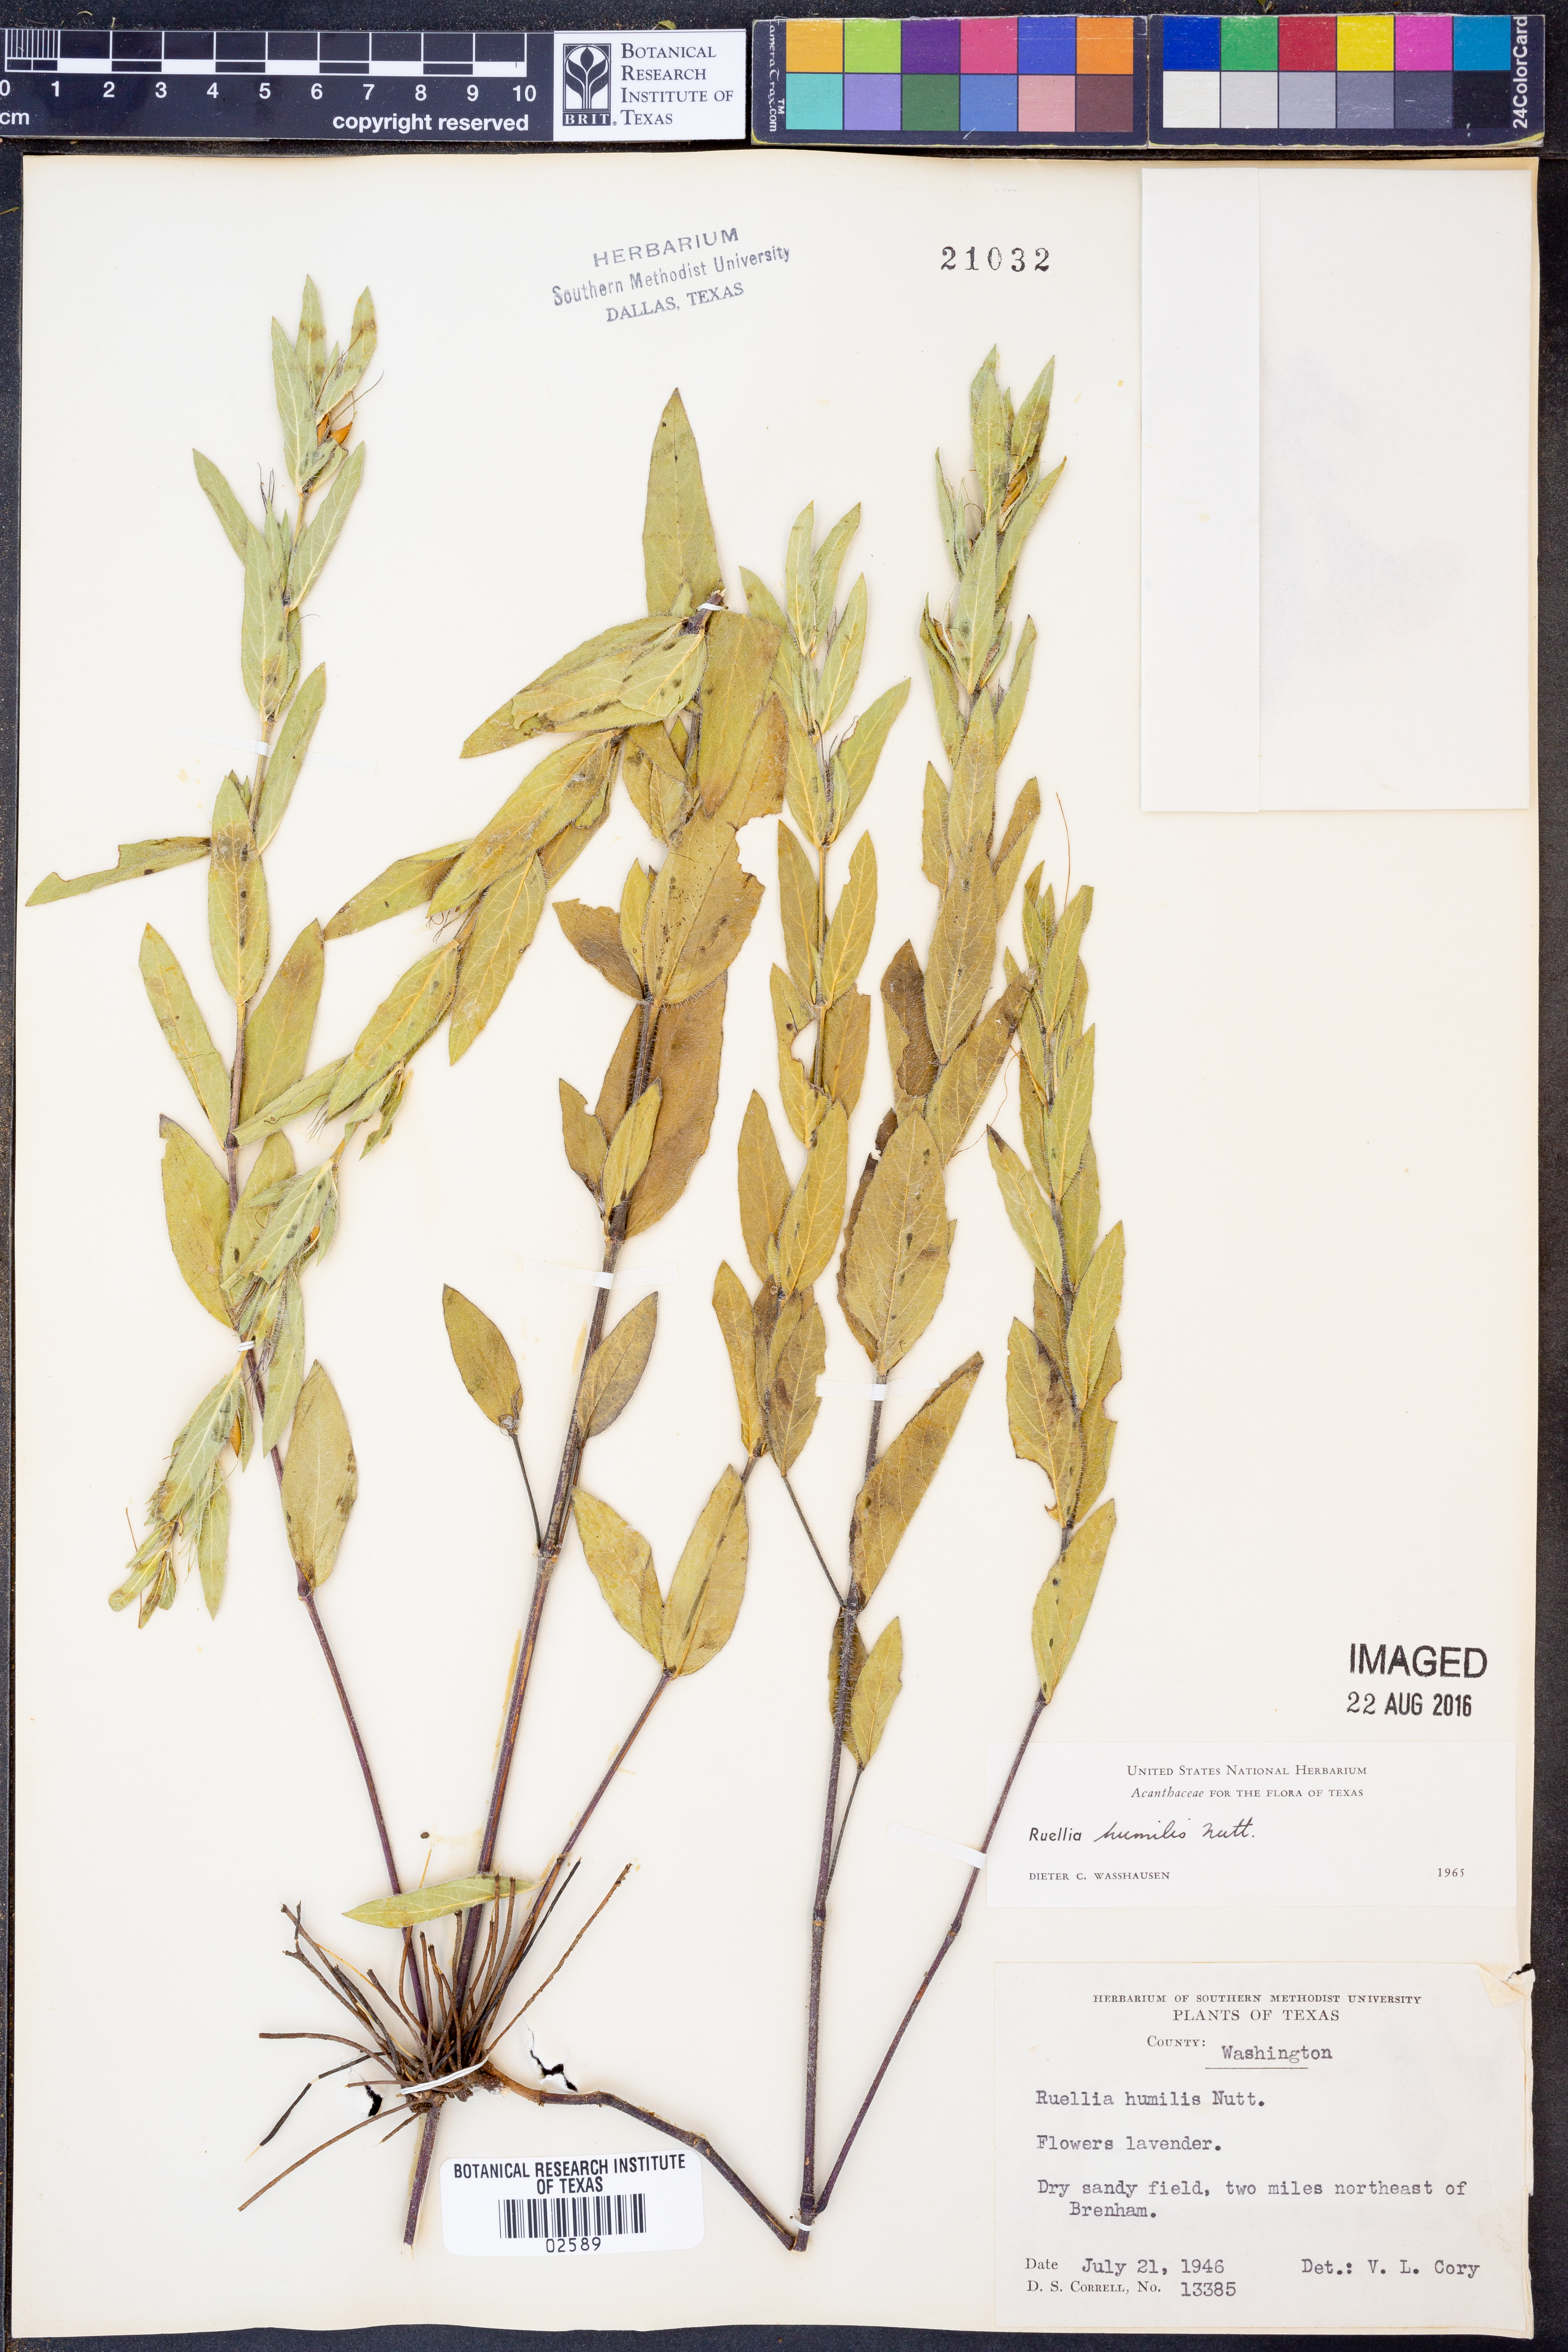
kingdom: Plantae
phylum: Tracheophyta
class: Magnoliopsida
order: Lamiales
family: Acanthaceae
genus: Ruellia
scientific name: Ruellia humilis
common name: Fringe-leaf ruellia
